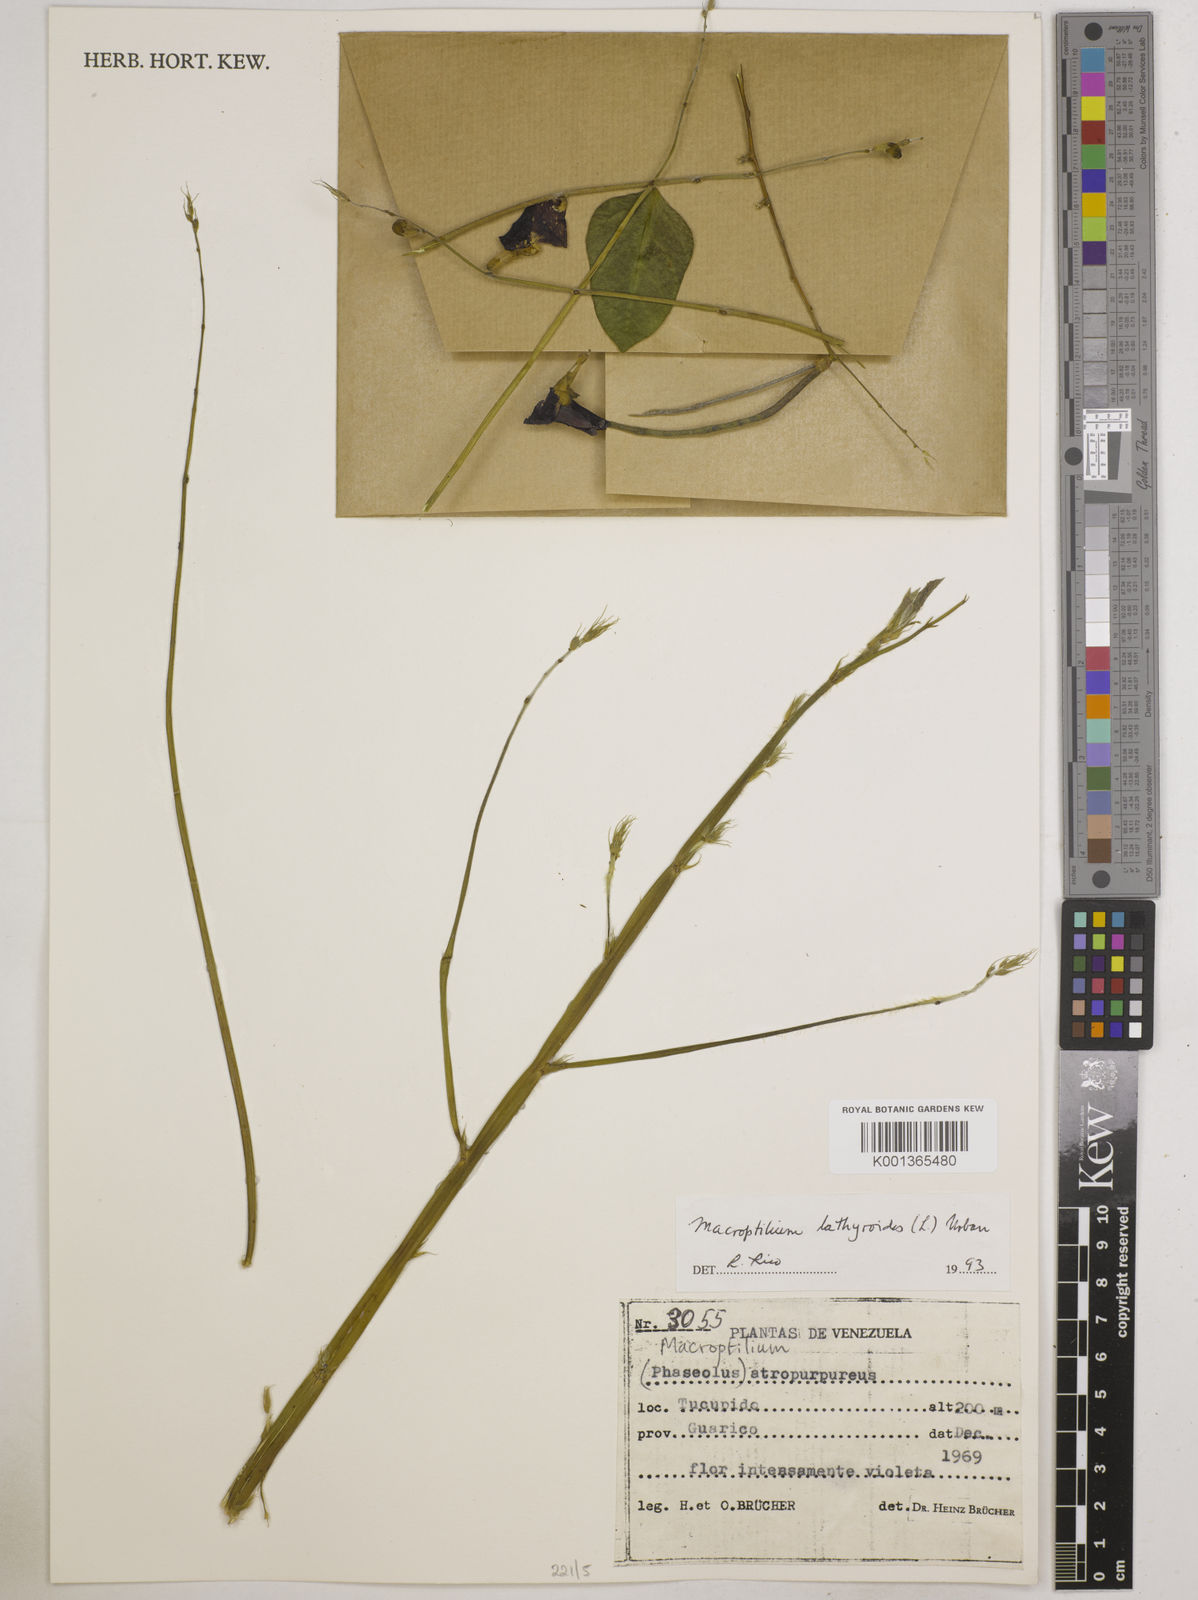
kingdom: Plantae
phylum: Tracheophyta
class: Magnoliopsida
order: Fabales
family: Fabaceae
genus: Macroptilium
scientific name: Macroptilium lathyroides
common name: Wild bushbean
